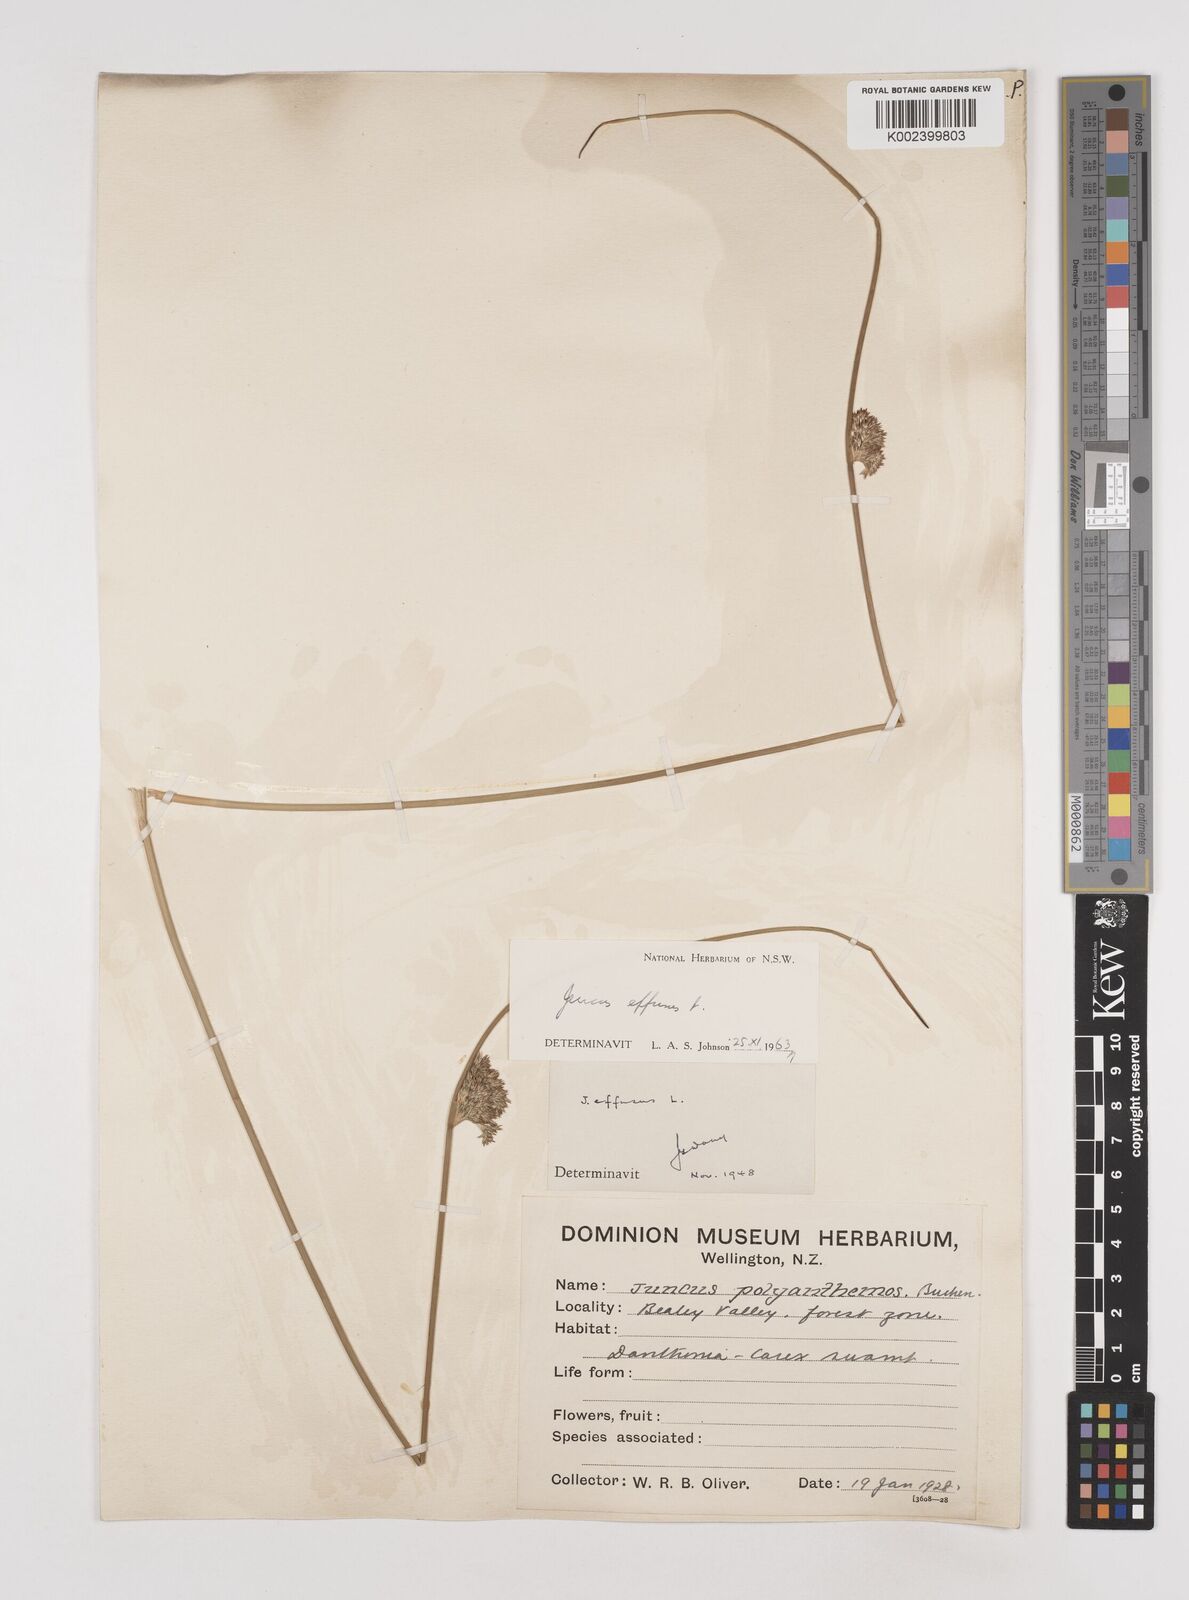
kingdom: Plantae
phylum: Tracheophyta
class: Liliopsida
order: Poales
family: Juncaceae
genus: Juncus
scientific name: Juncus effusus
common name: Soft rush
